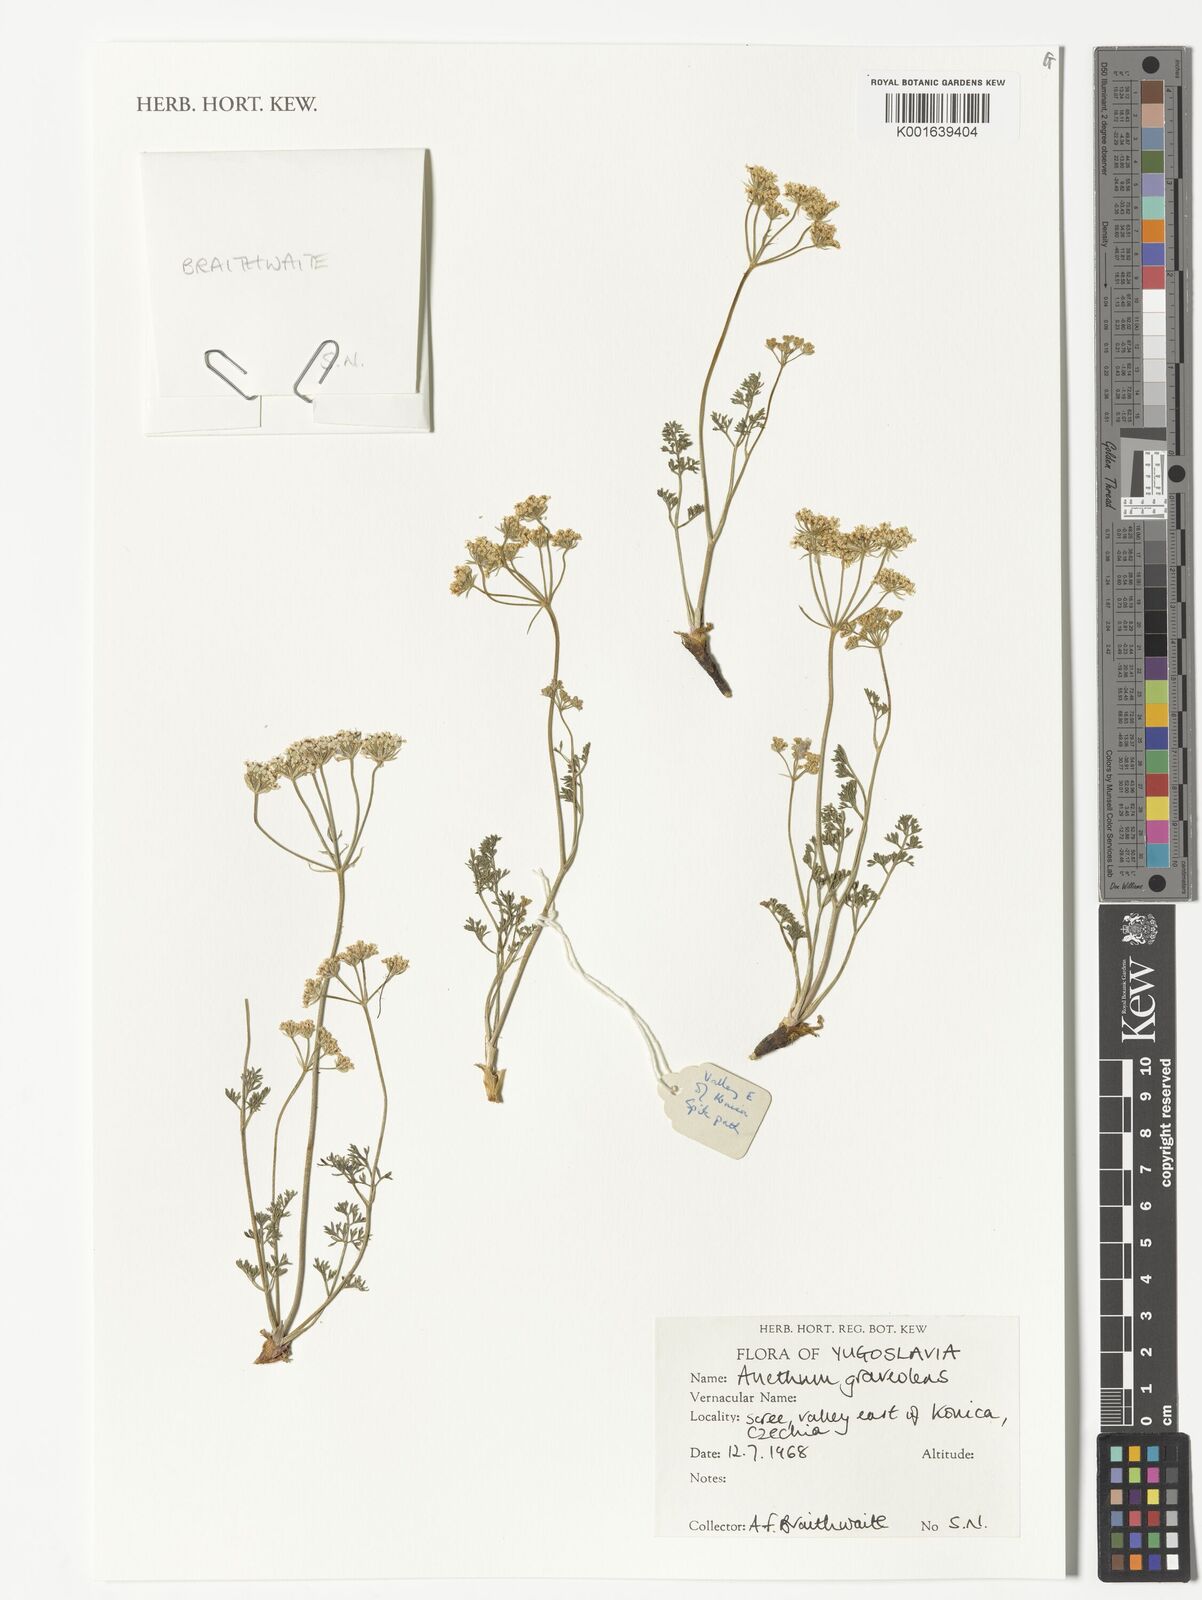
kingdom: Plantae
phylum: Tracheophyta
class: Magnoliopsida
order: Apiales
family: Apiaceae
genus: Anethum
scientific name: Anethum graveolens
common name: Dill
